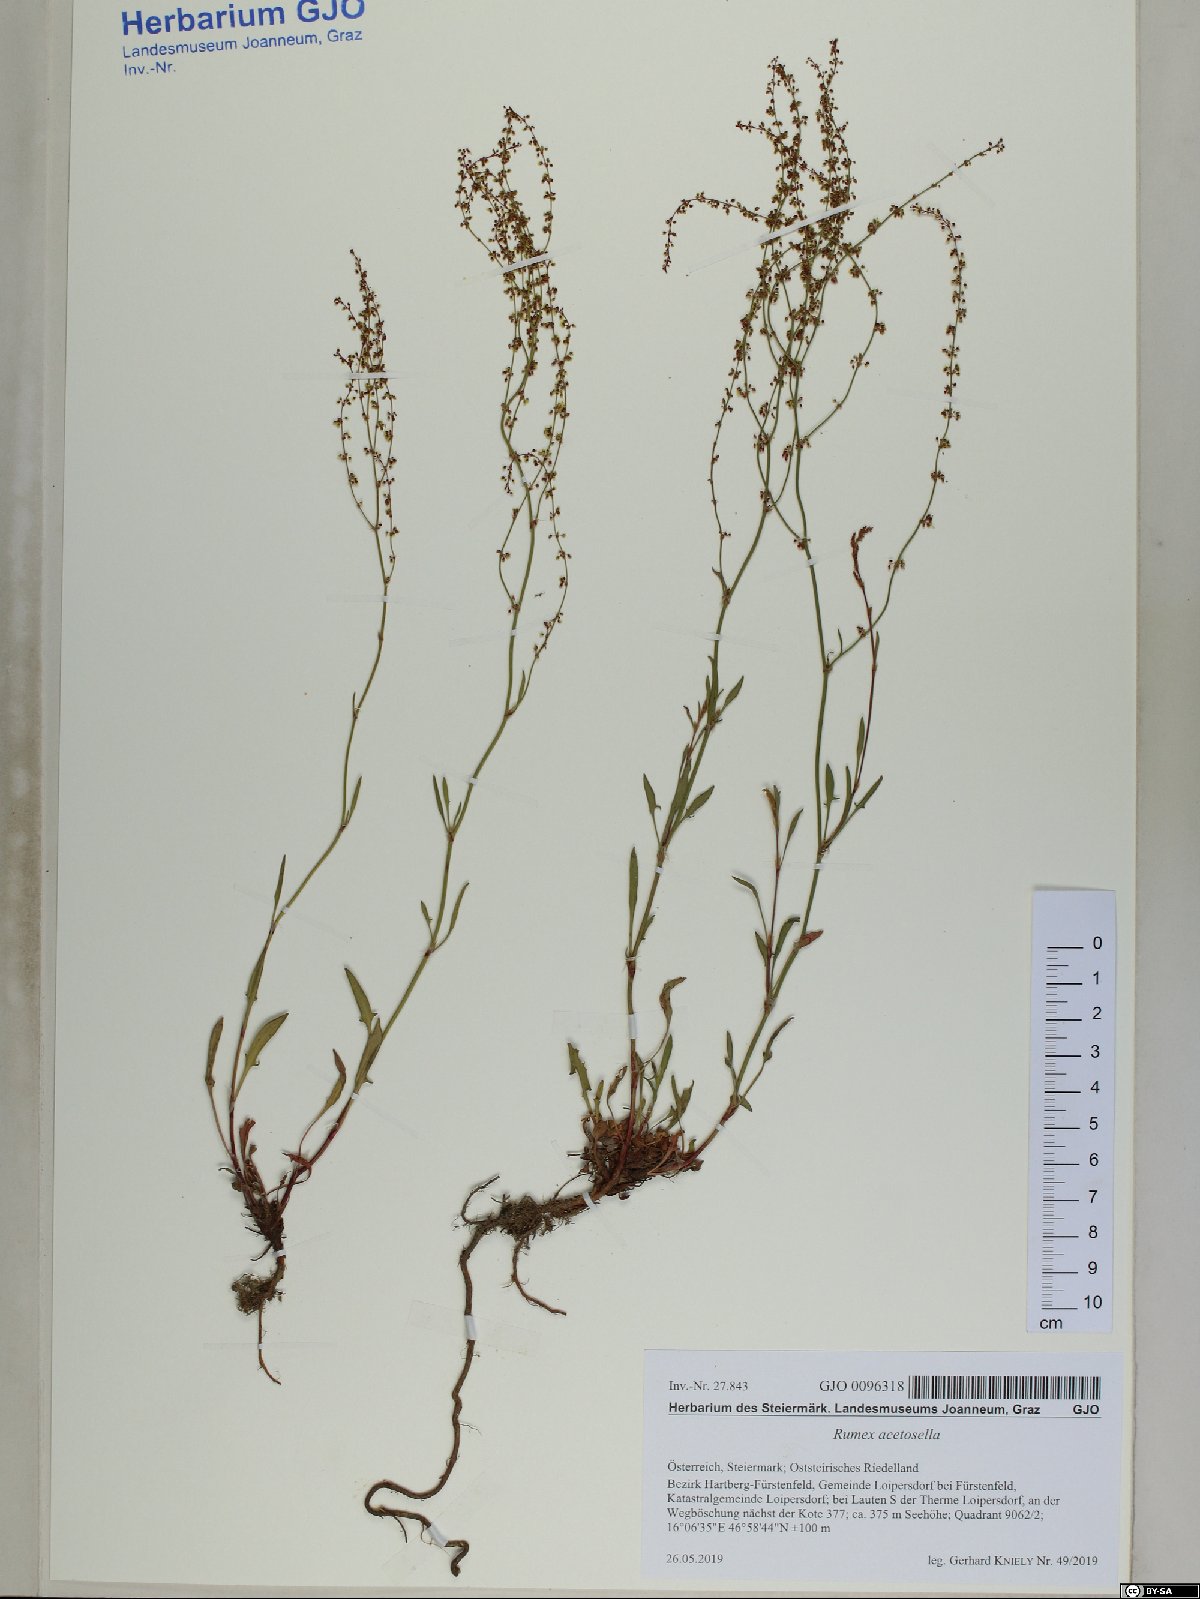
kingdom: Plantae
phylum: Tracheophyta
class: Magnoliopsida
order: Caryophyllales
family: Polygonaceae
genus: Rumex
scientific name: Rumex acetosella
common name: Common sheep sorrel
